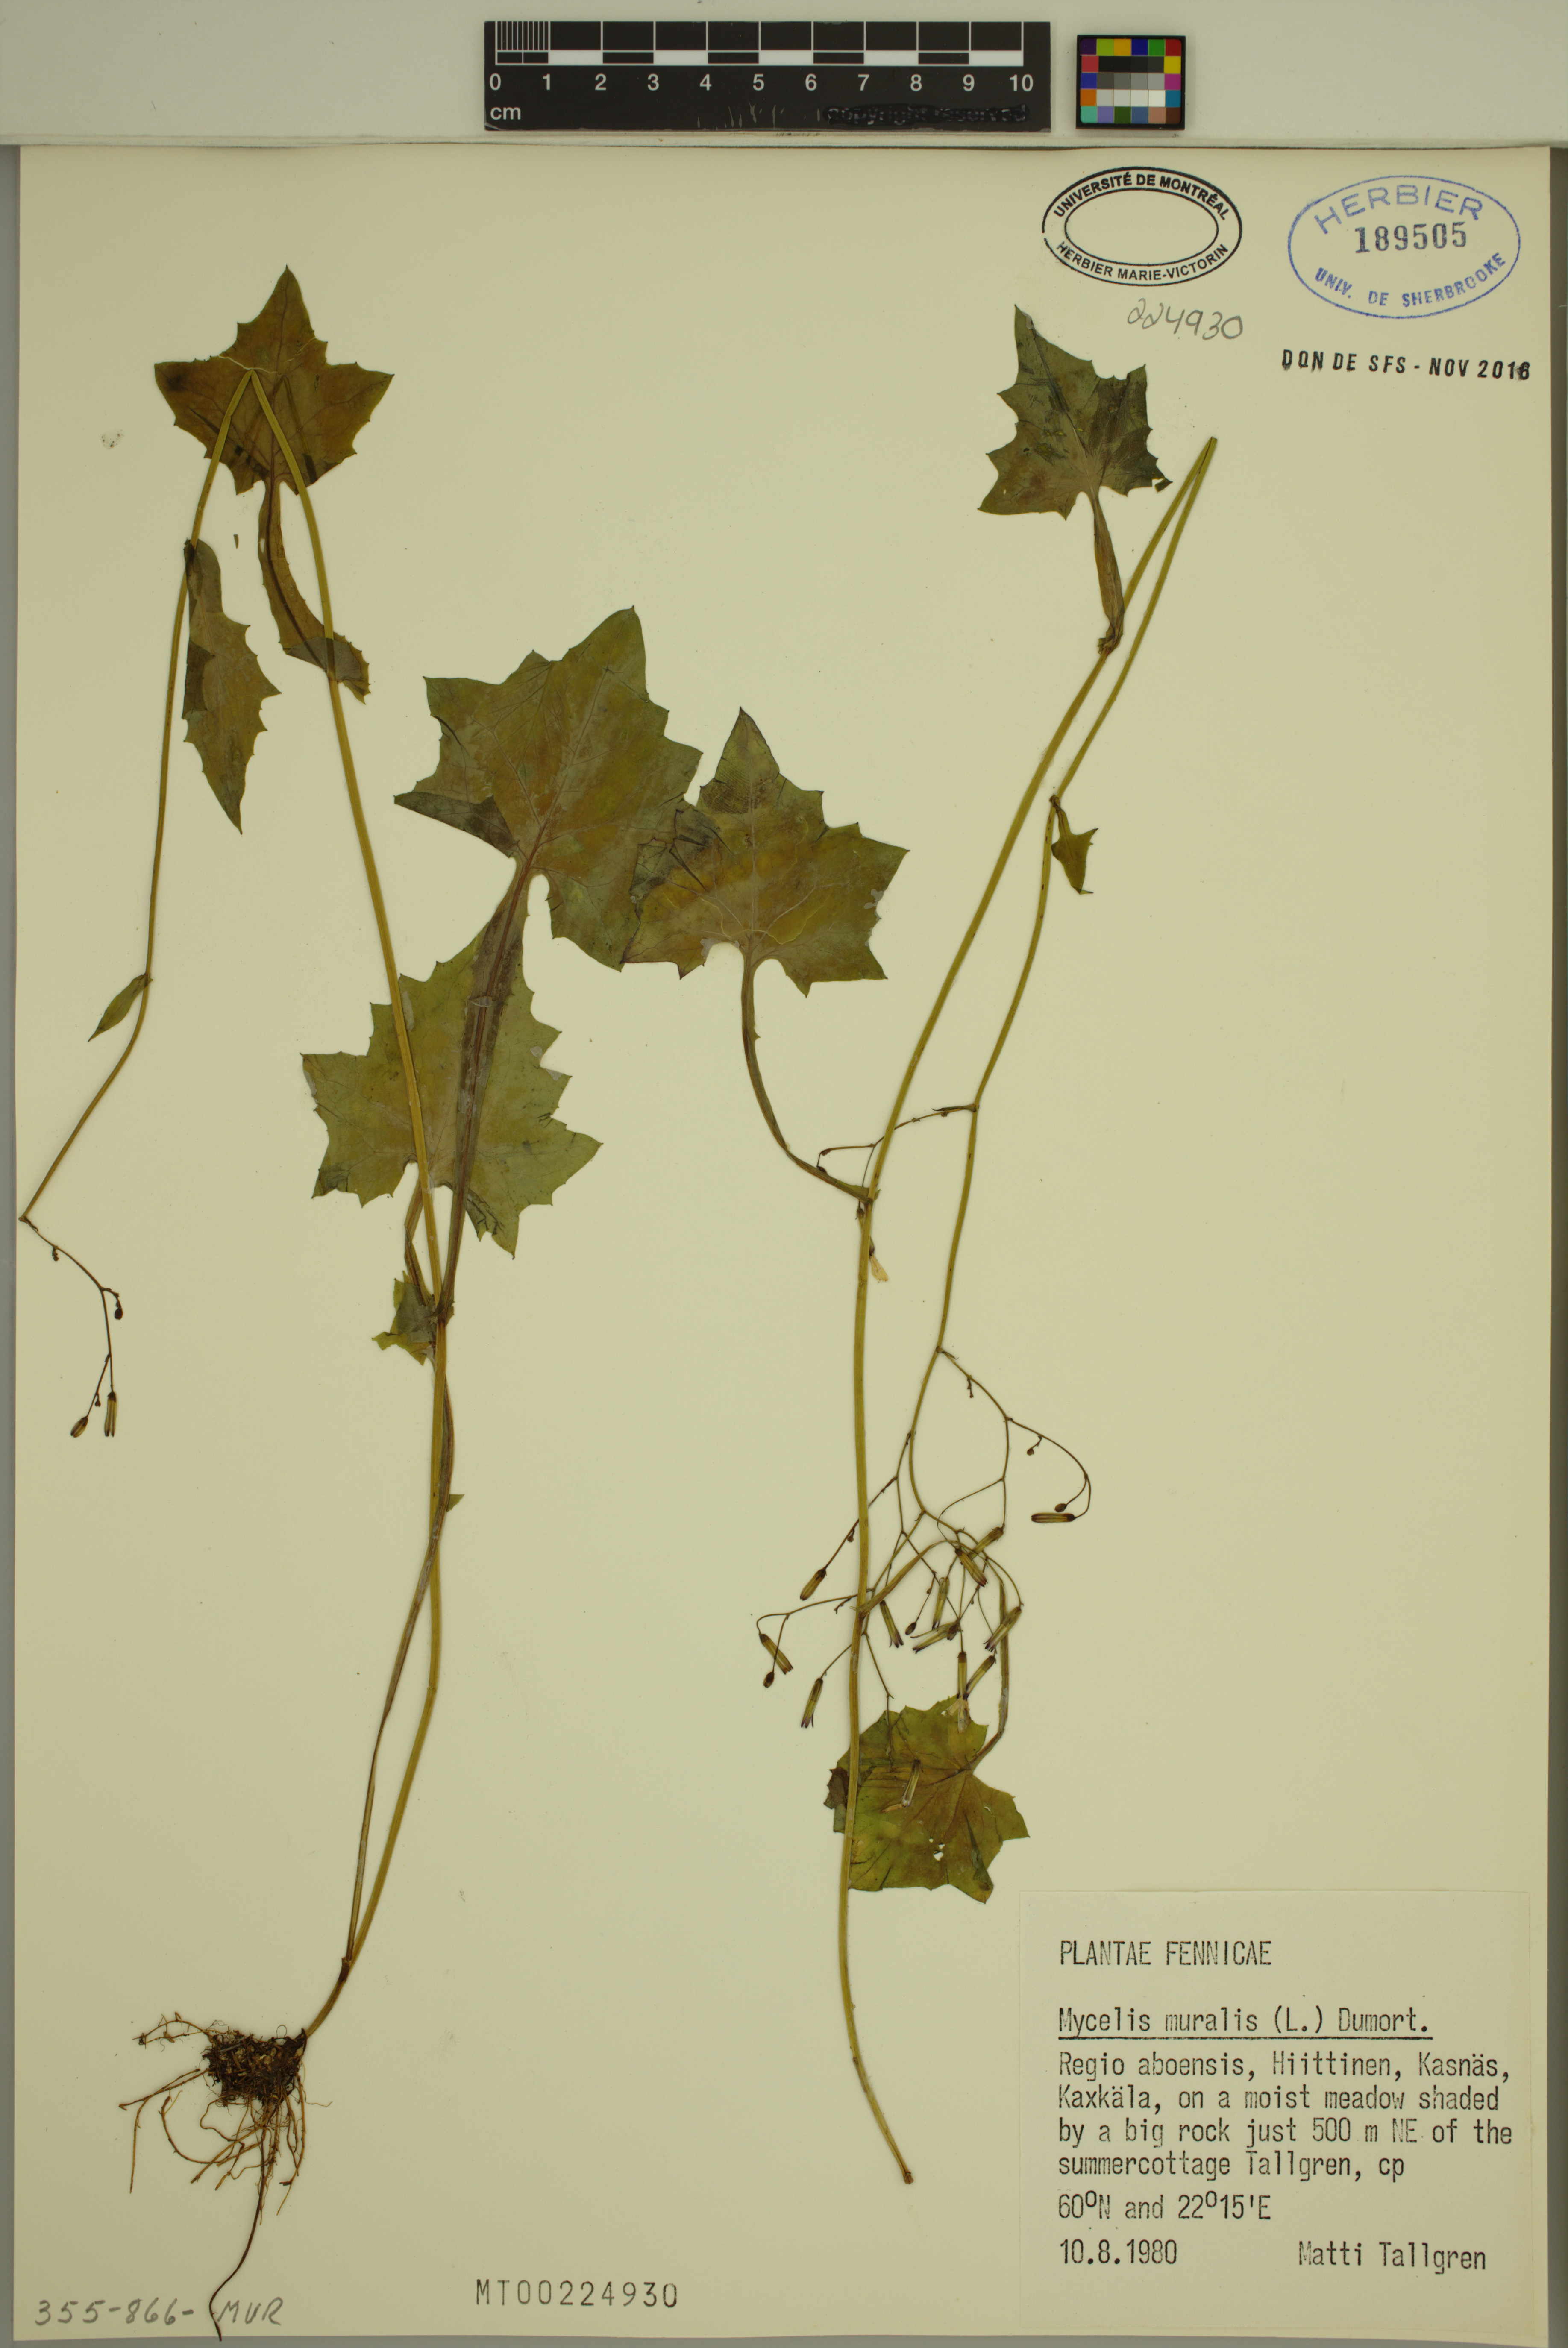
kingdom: Plantae
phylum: Tracheophyta
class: Magnoliopsida
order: Asterales
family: Asteraceae
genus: Mycelis
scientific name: Mycelis muralis
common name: Wall lettuce
